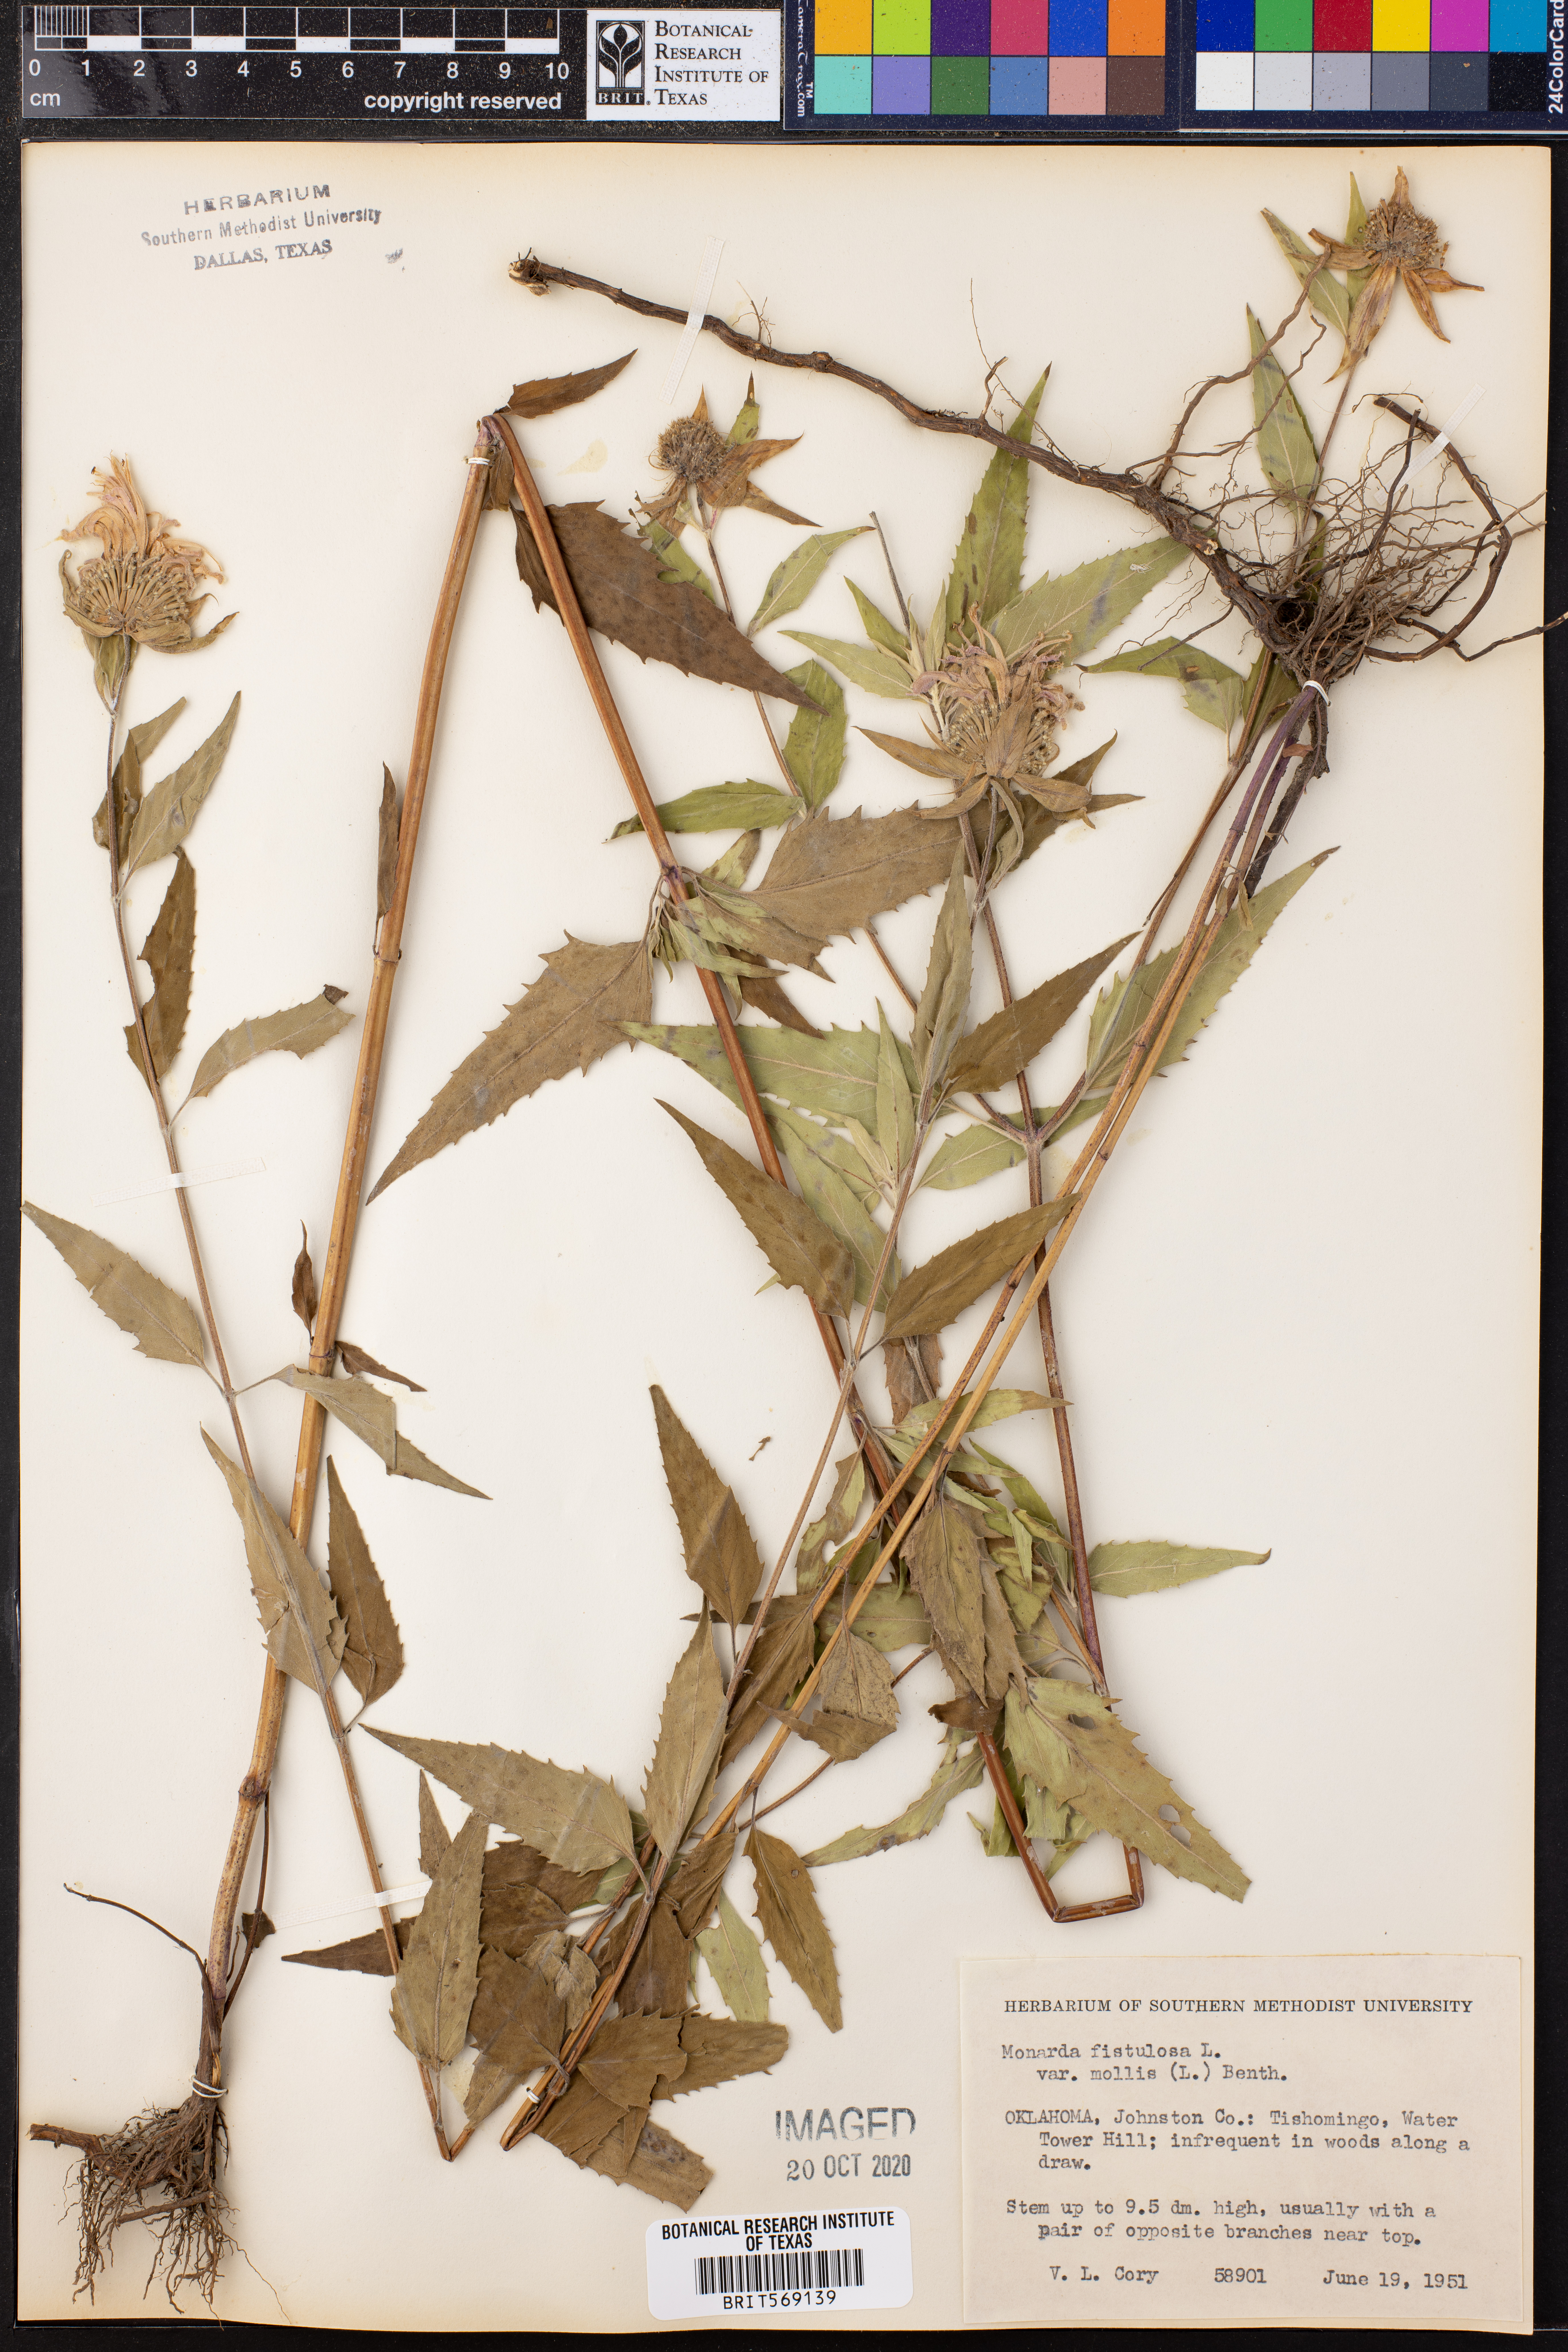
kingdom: Plantae
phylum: Tracheophyta
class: Magnoliopsida
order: Lamiales
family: Lamiaceae
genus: Monarda
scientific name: Monarda fistulosa
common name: Purple beebalm
